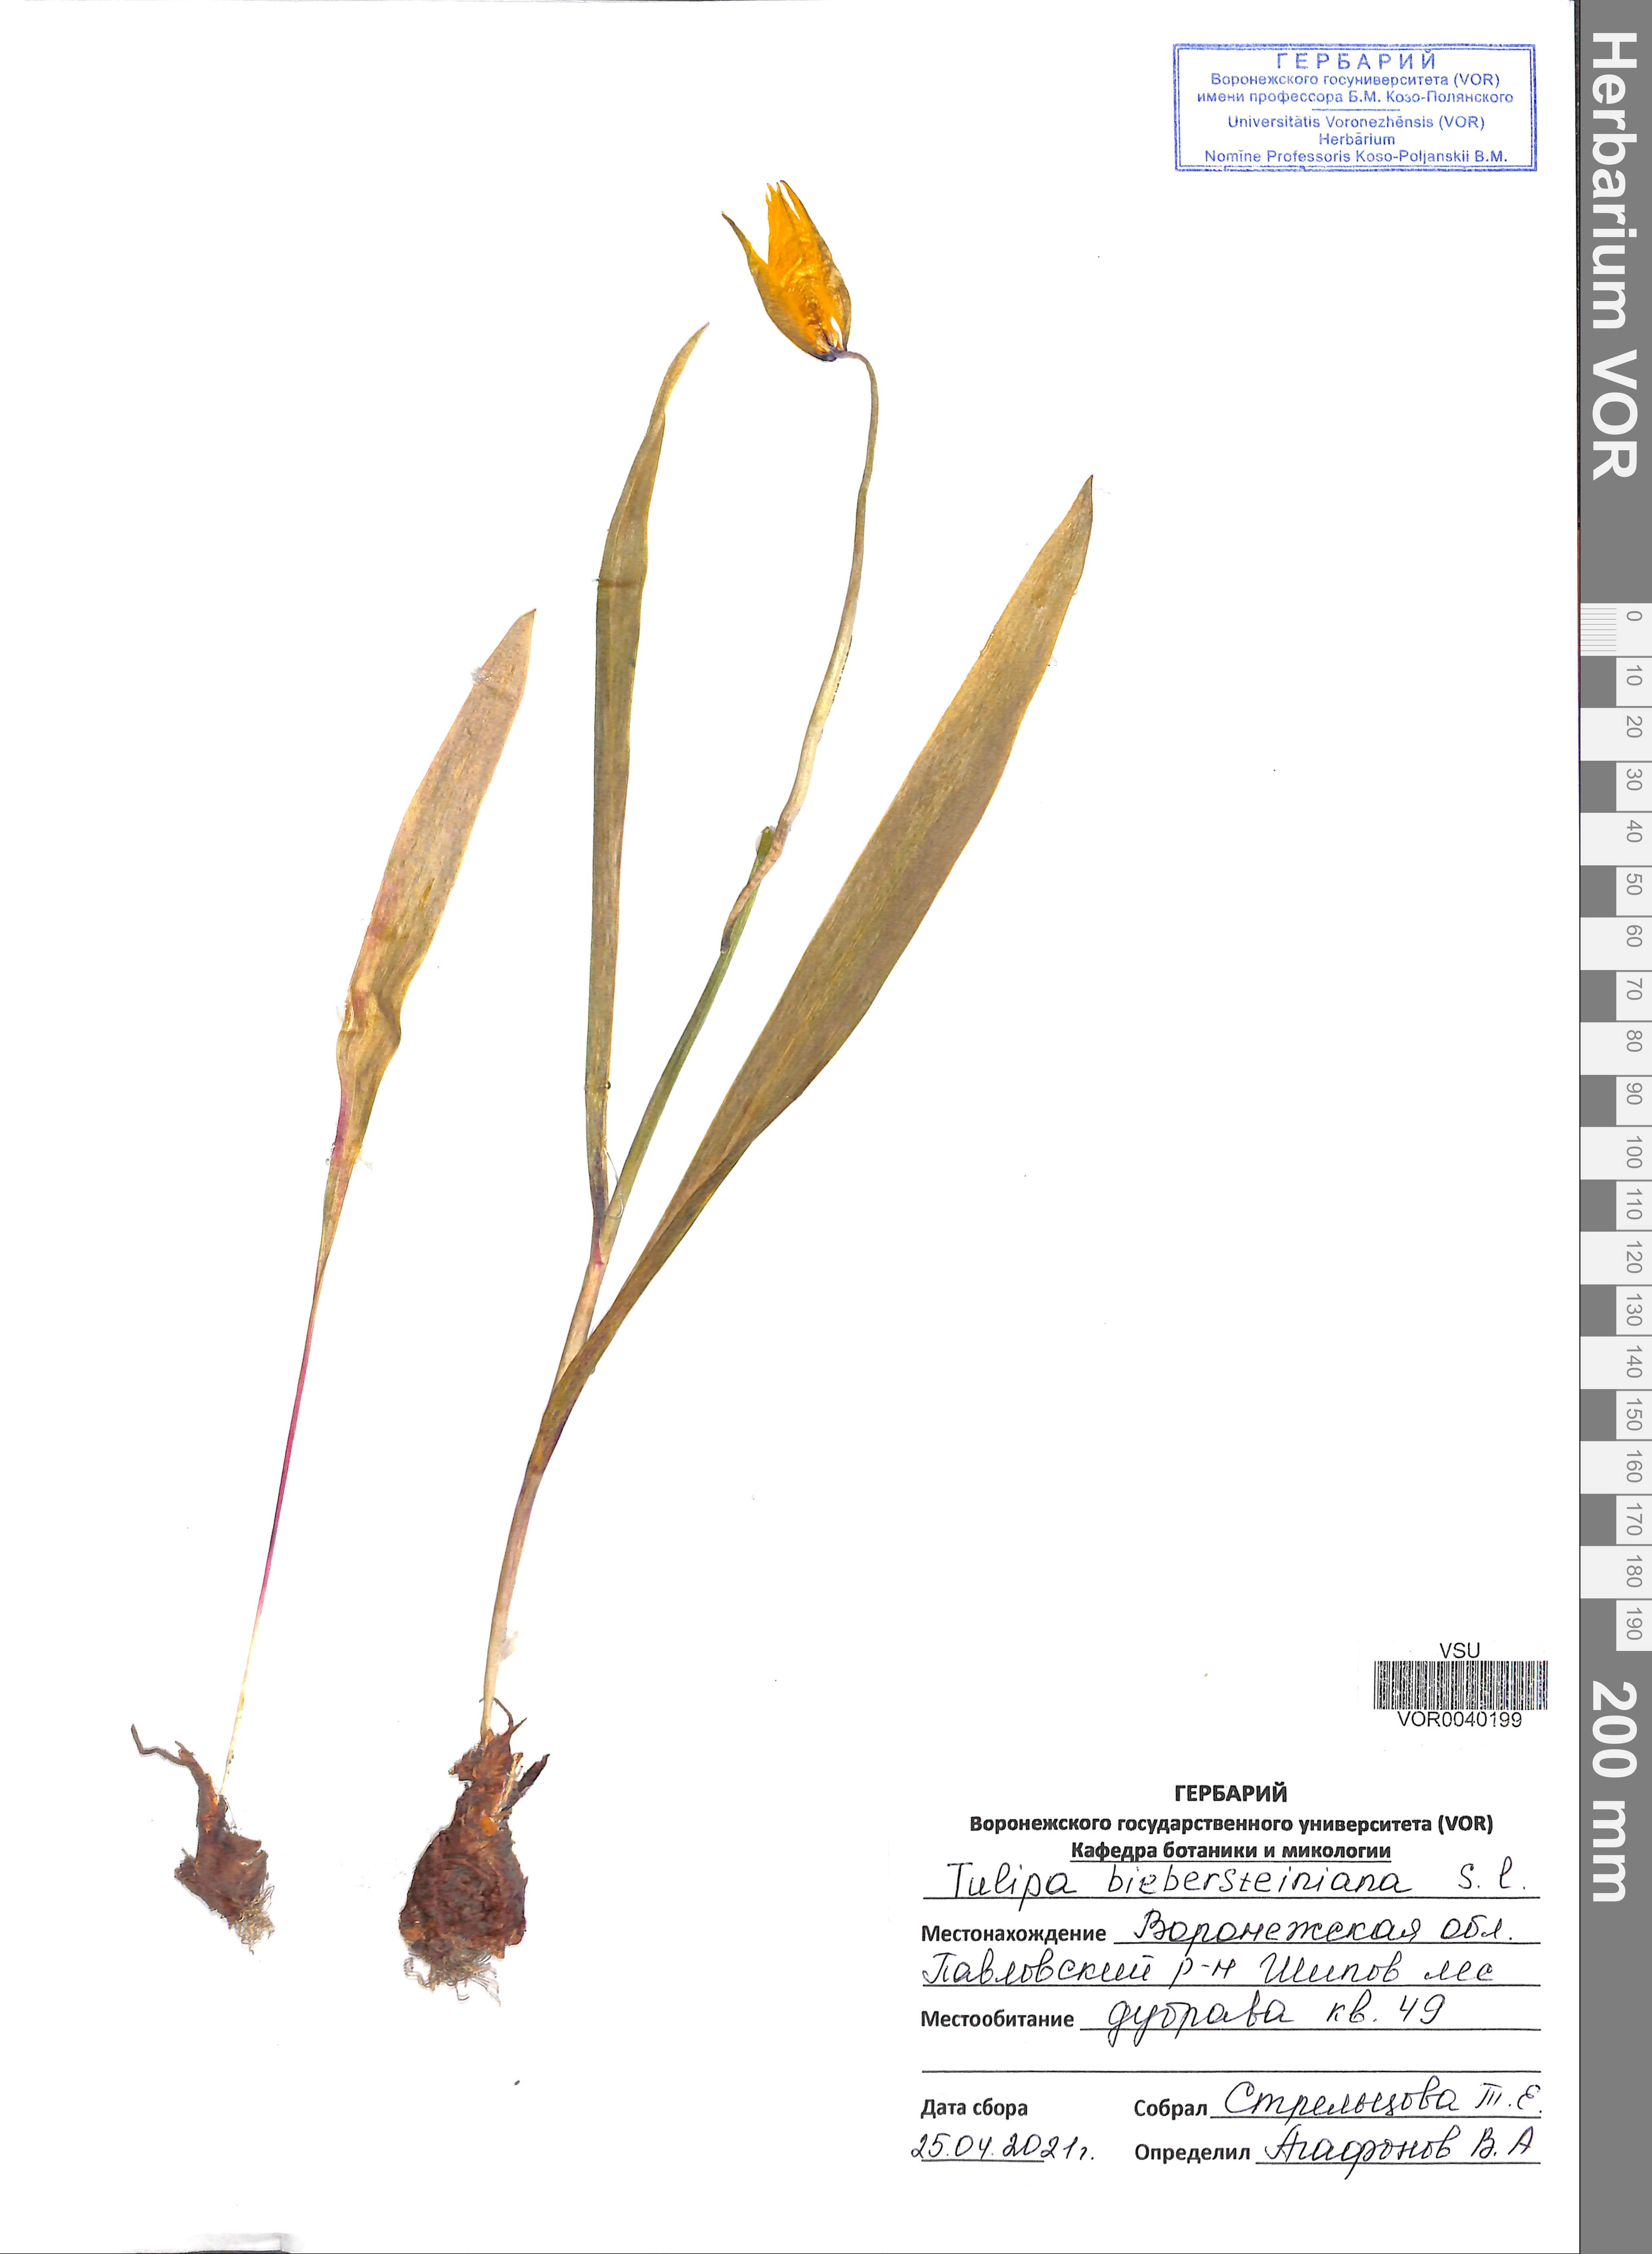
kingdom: Plantae
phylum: Tracheophyta
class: Liliopsida
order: Liliales
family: Liliaceae
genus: Tulipa
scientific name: Tulipa sylvestris
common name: Wild tulip
